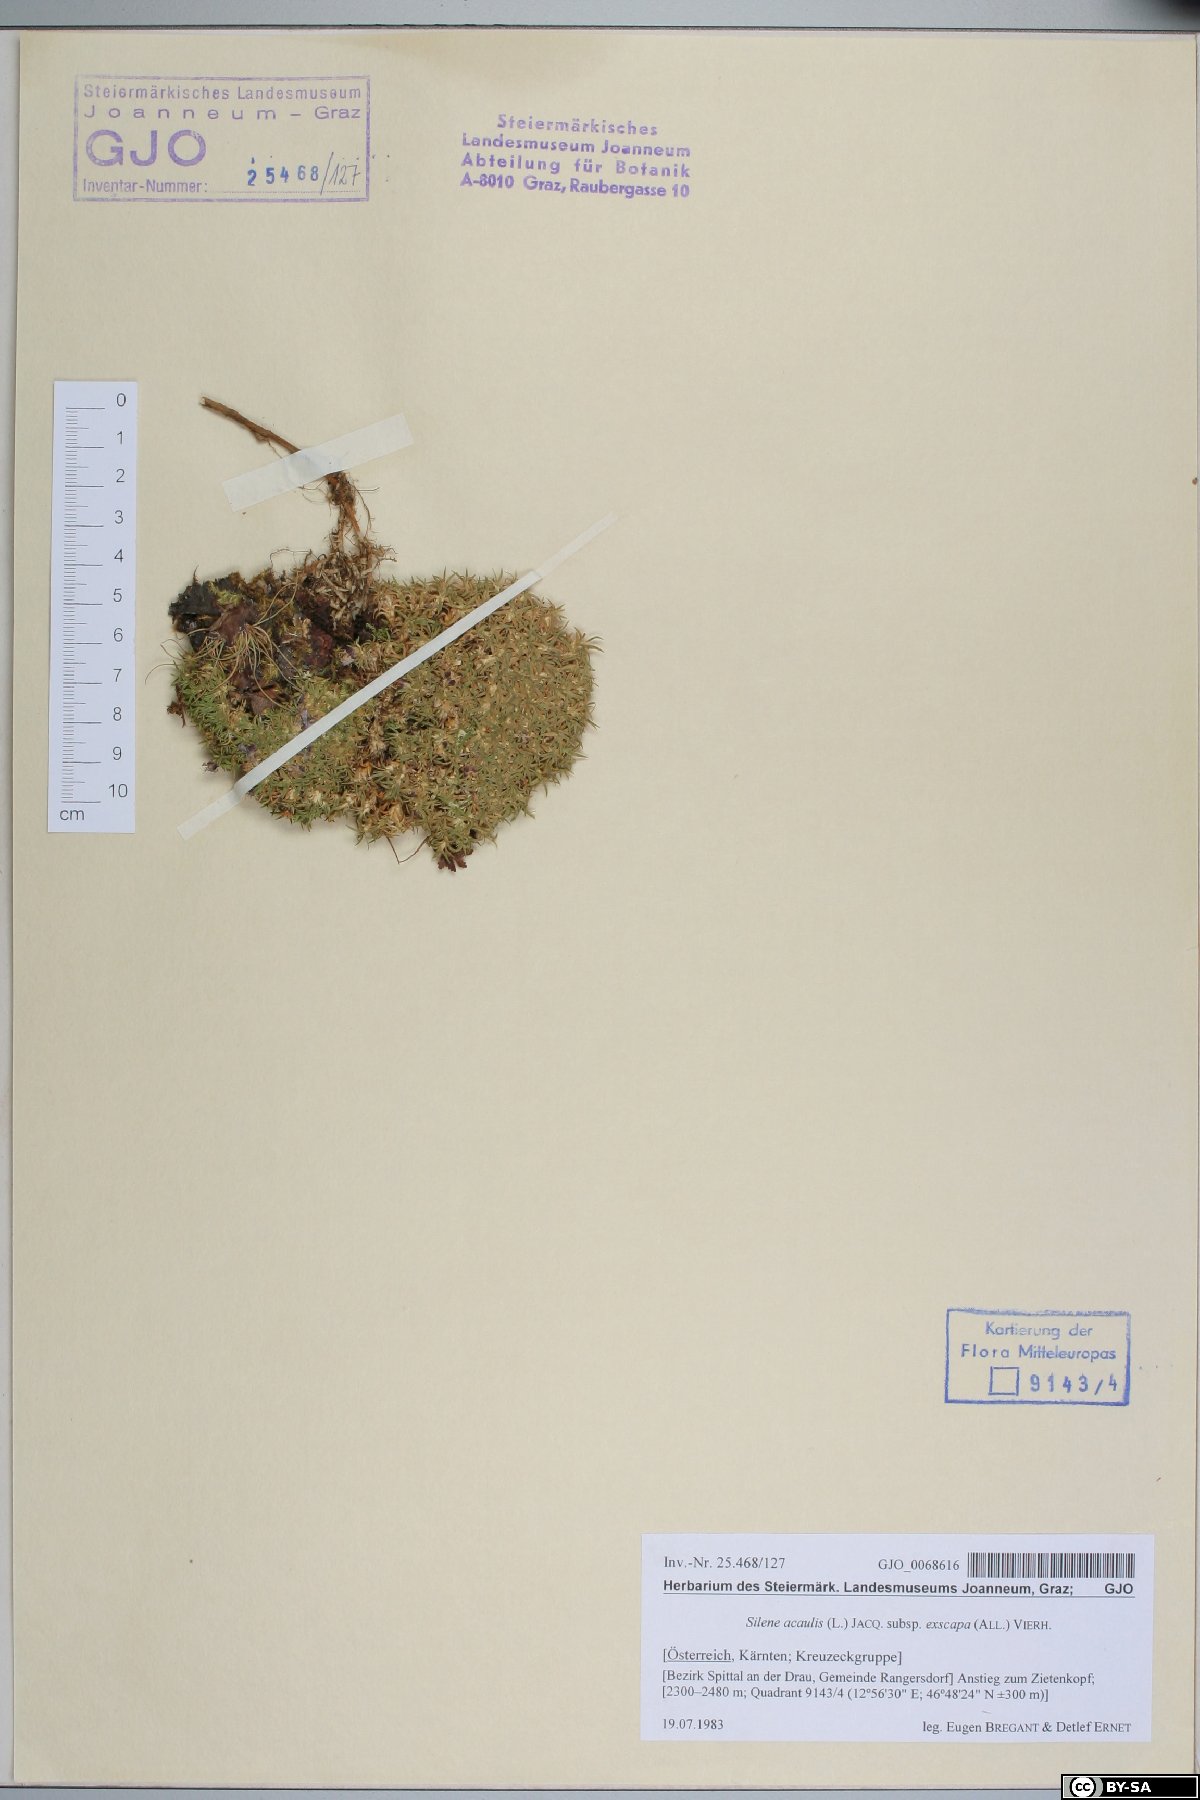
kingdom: Plantae
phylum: Tracheophyta
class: Magnoliopsida
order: Caryophyllales
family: Caryophyllaceae
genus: Silene
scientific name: Silene acaulis
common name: Moss campion
